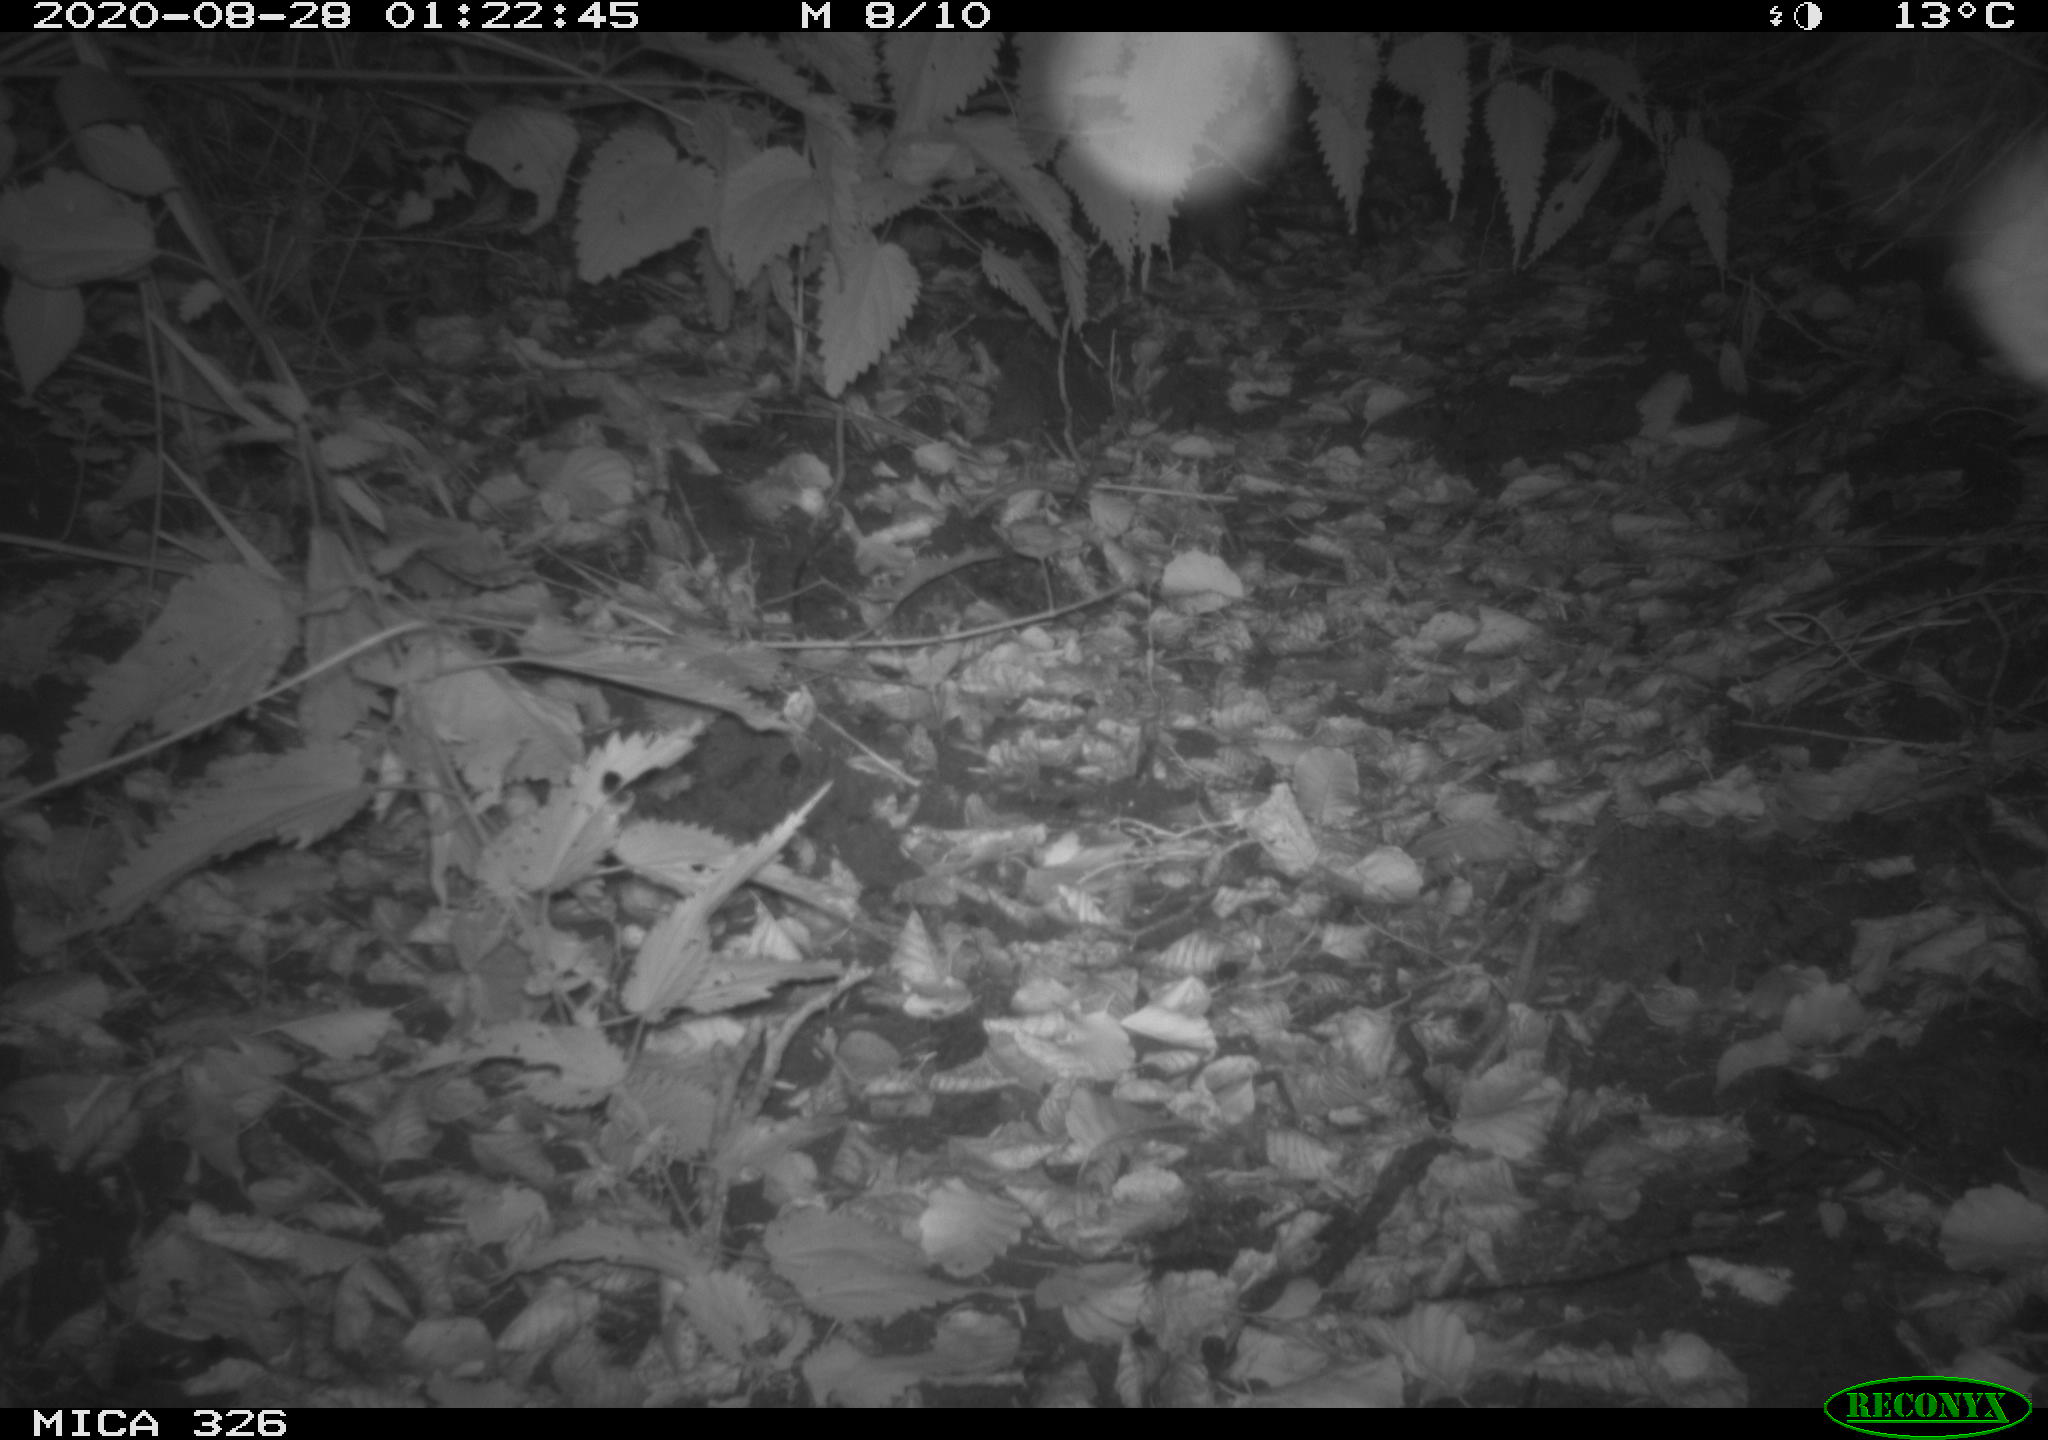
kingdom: Animalia
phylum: Chordata
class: Mammalia
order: Rodentia
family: Muridae
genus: Rattus
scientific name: Rattus norvegicus
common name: Brown rat
